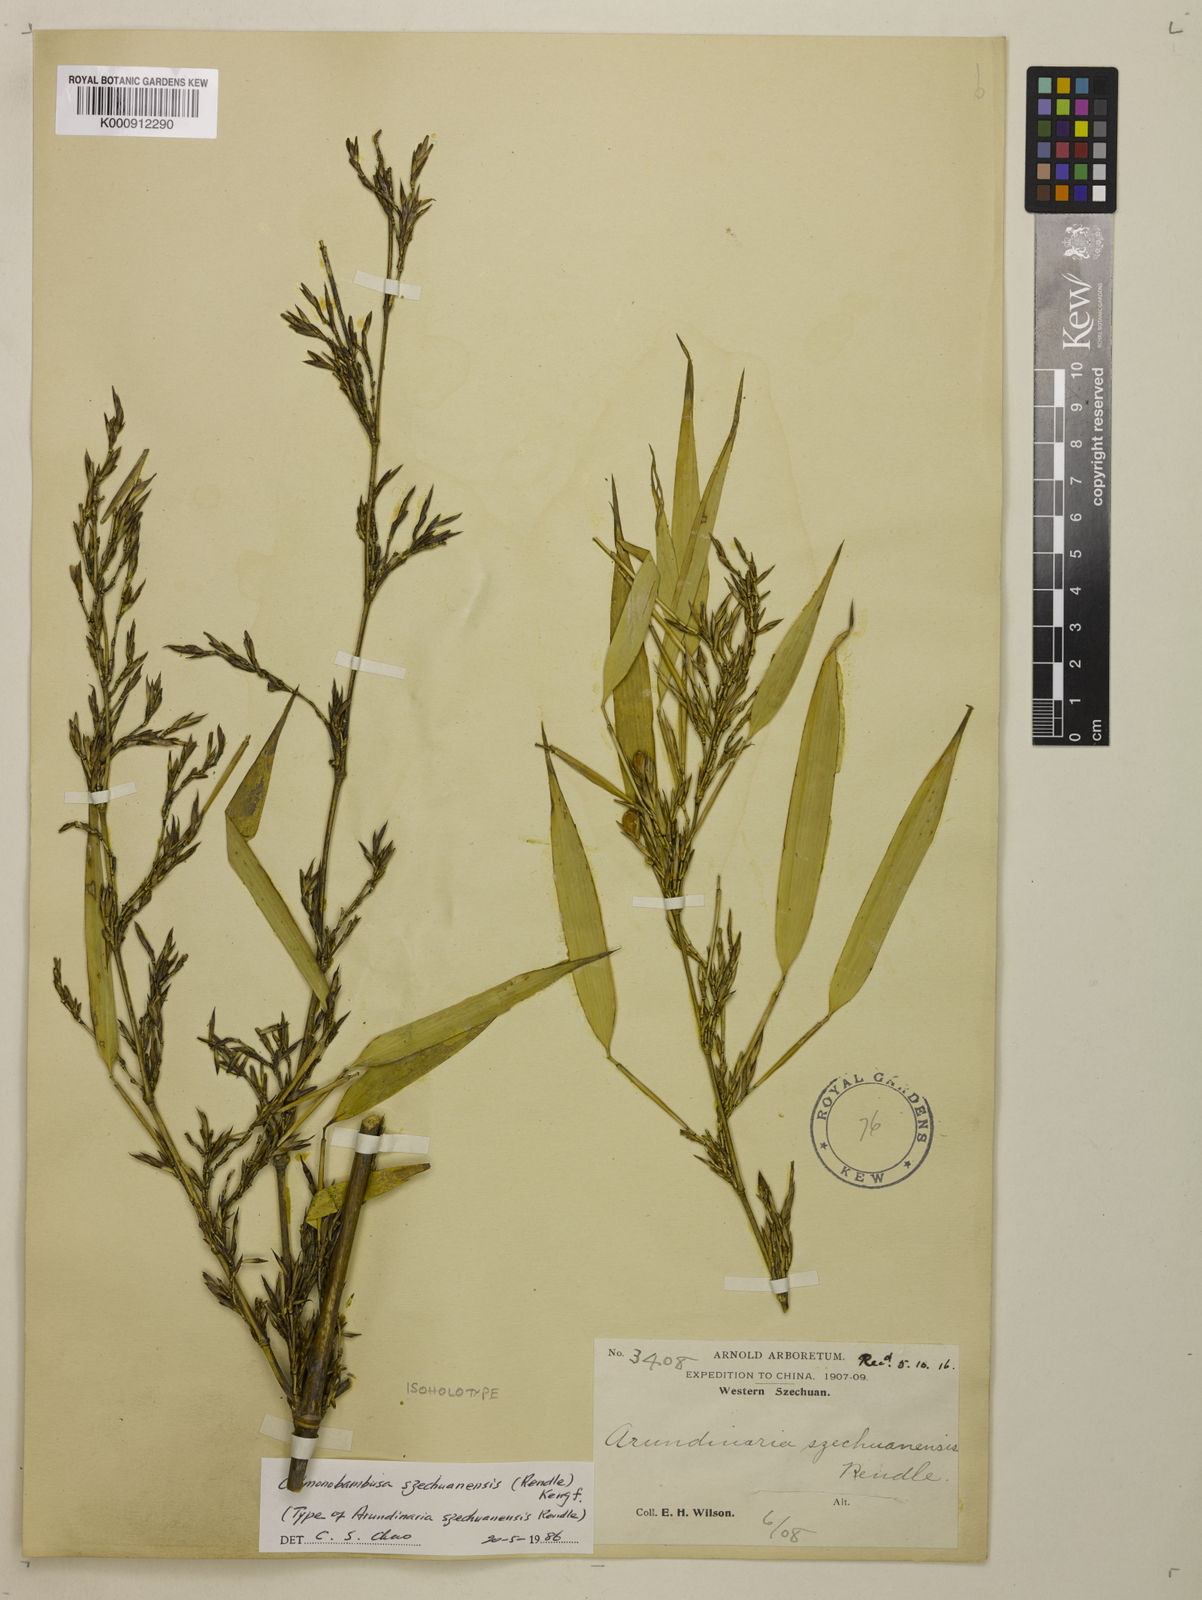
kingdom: Plantae
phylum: Tracheophyta
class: Liliopsida
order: Poales
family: Poaceae
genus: Chimonobambusa
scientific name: Chimonobambusa szechuanensis
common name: Sichuan square bamboo
